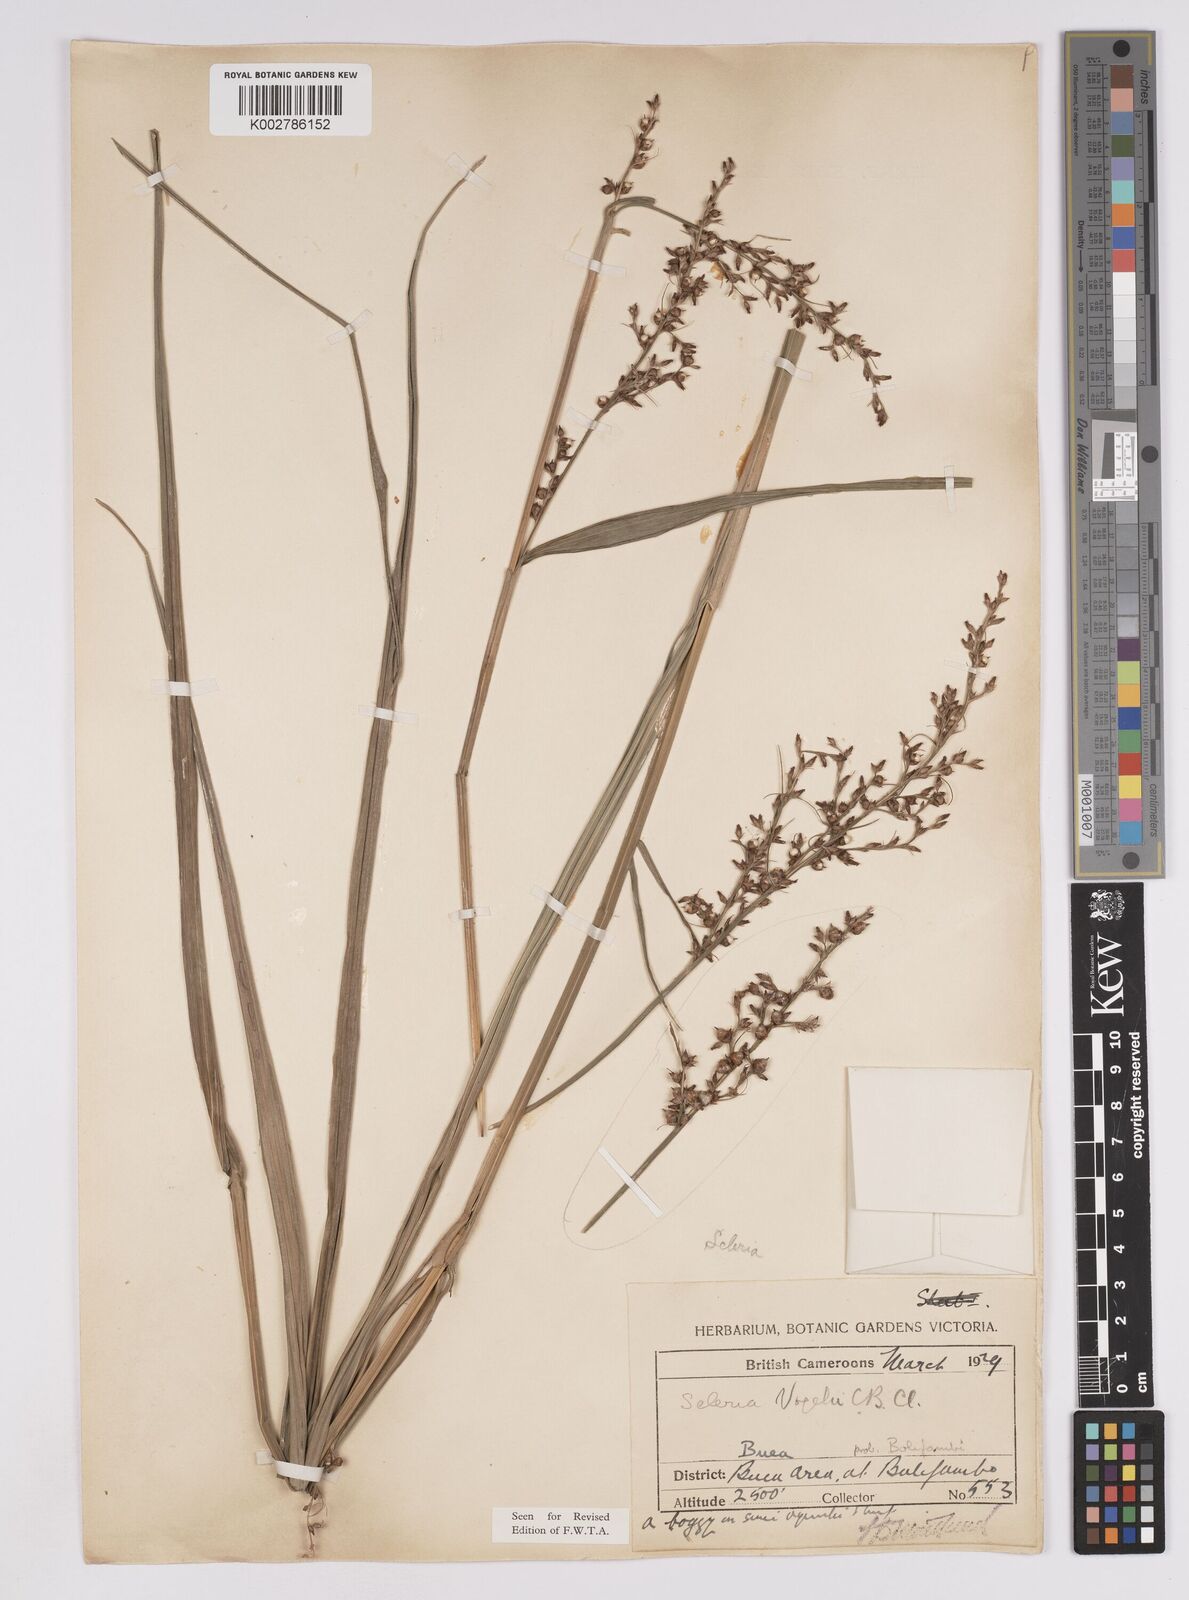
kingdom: Plantae
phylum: Tracheophyta
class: Liliopsida
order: Poales
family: Cyperaceae
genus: Scleria
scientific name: Scleria vogelii
